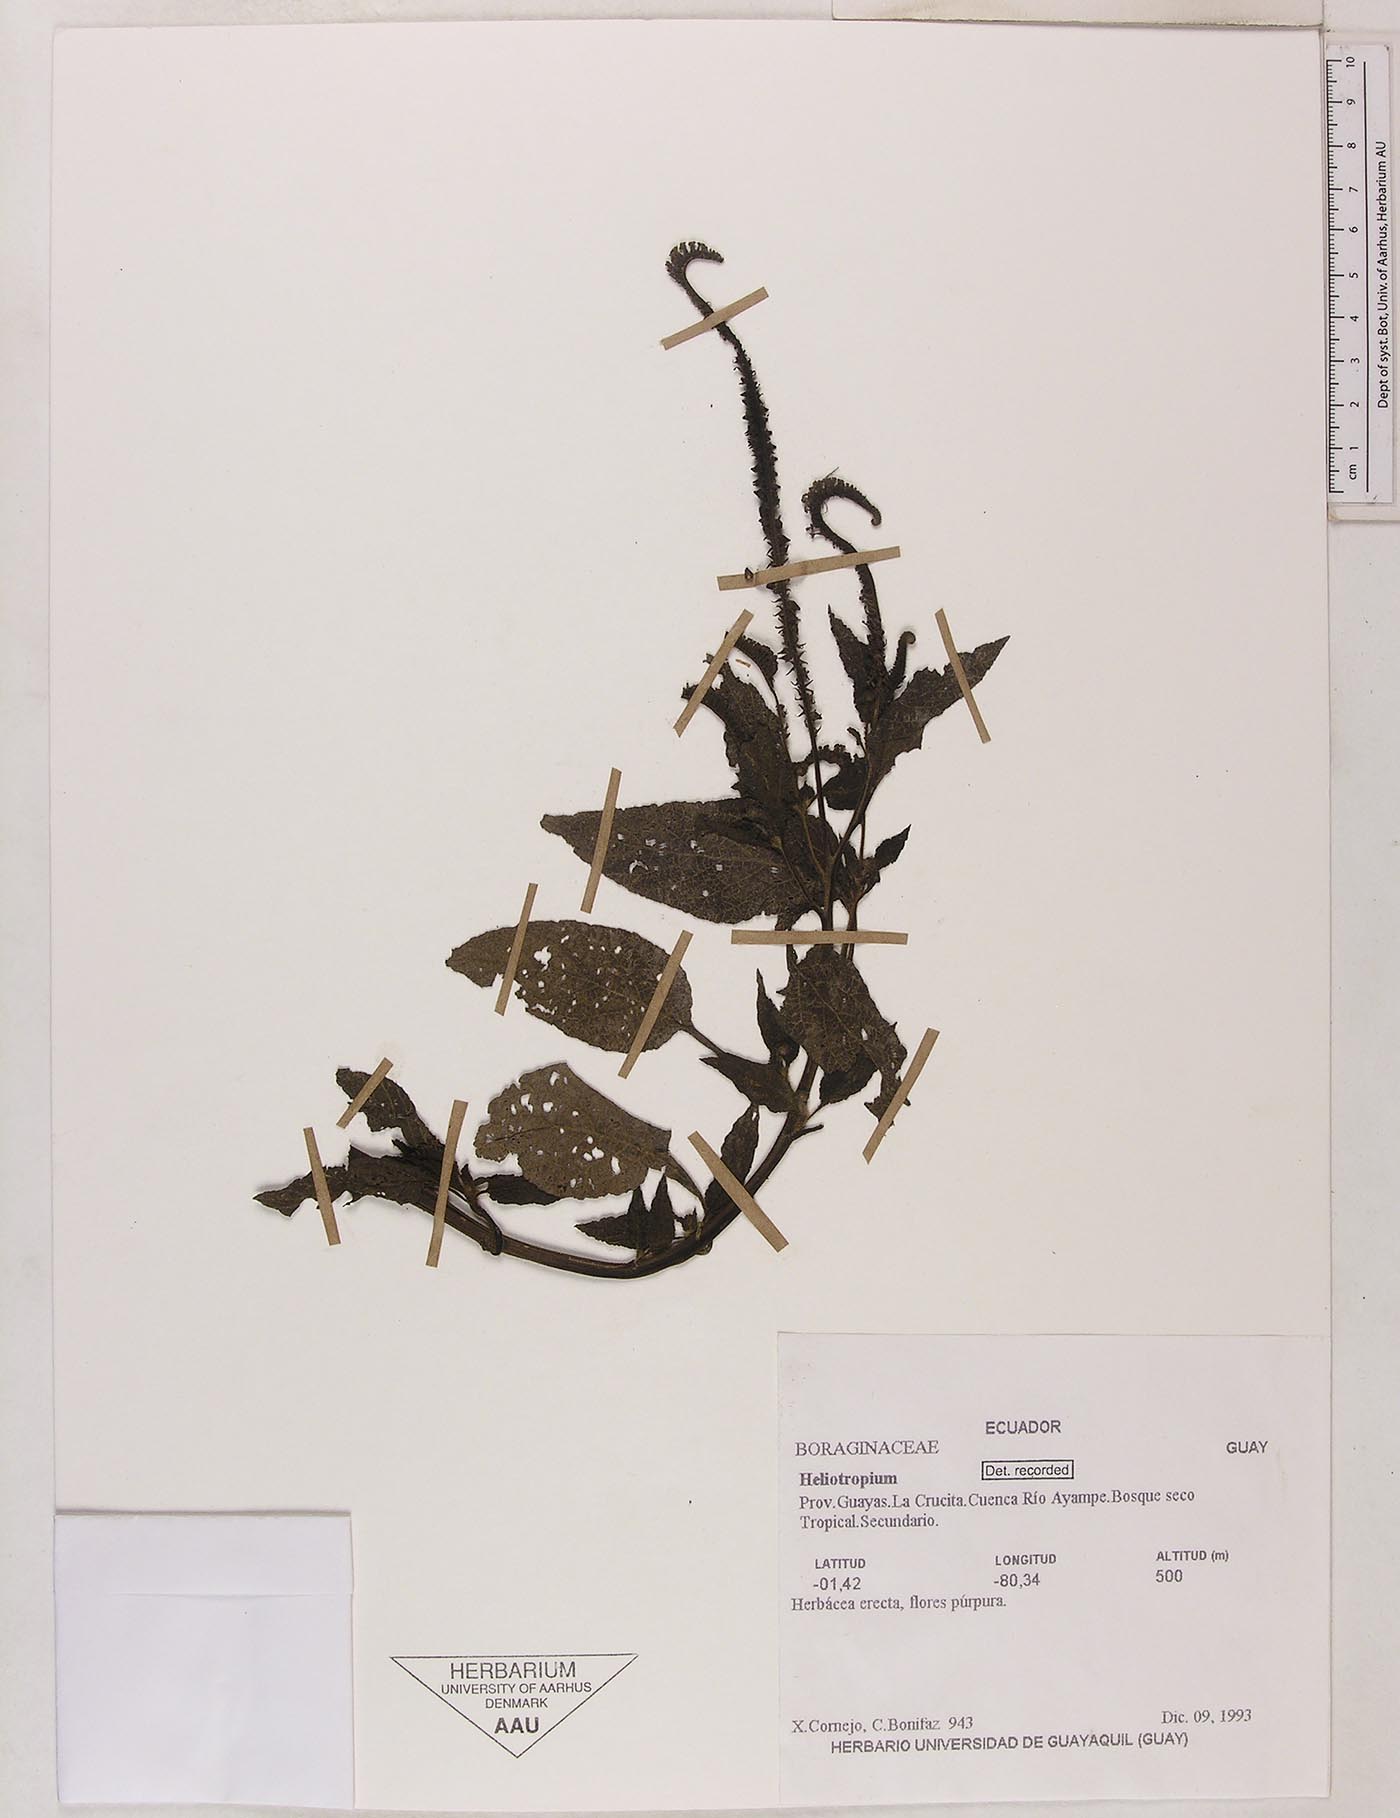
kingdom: Plantae
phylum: Tracheophyta
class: Magnoliopsida
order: Boraginales
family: Heliotropiaceae
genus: Heliotropium
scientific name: Heliotropium indicum
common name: Indian heliotrope
